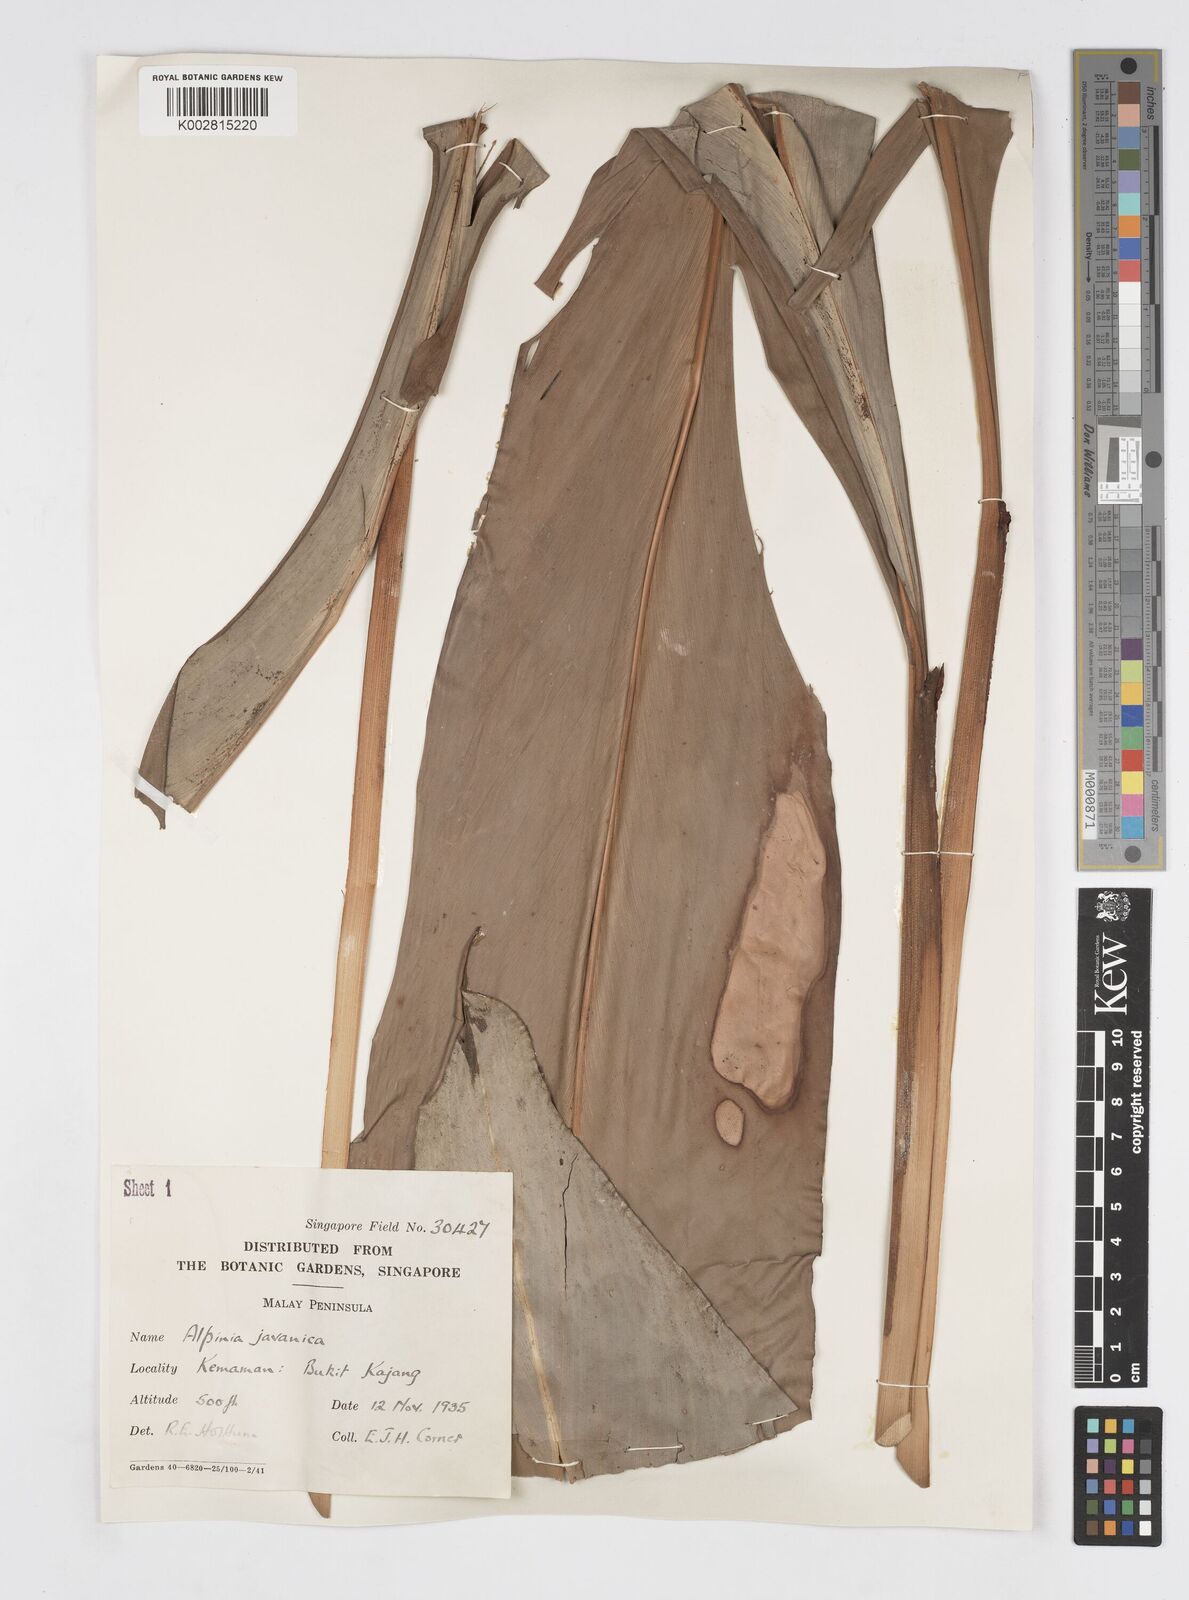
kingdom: Plantae
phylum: Tracheophyta
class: Liliopsida
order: Zingiberales
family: Zingiberaceae
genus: Alpinia
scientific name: Alpinia javanica
